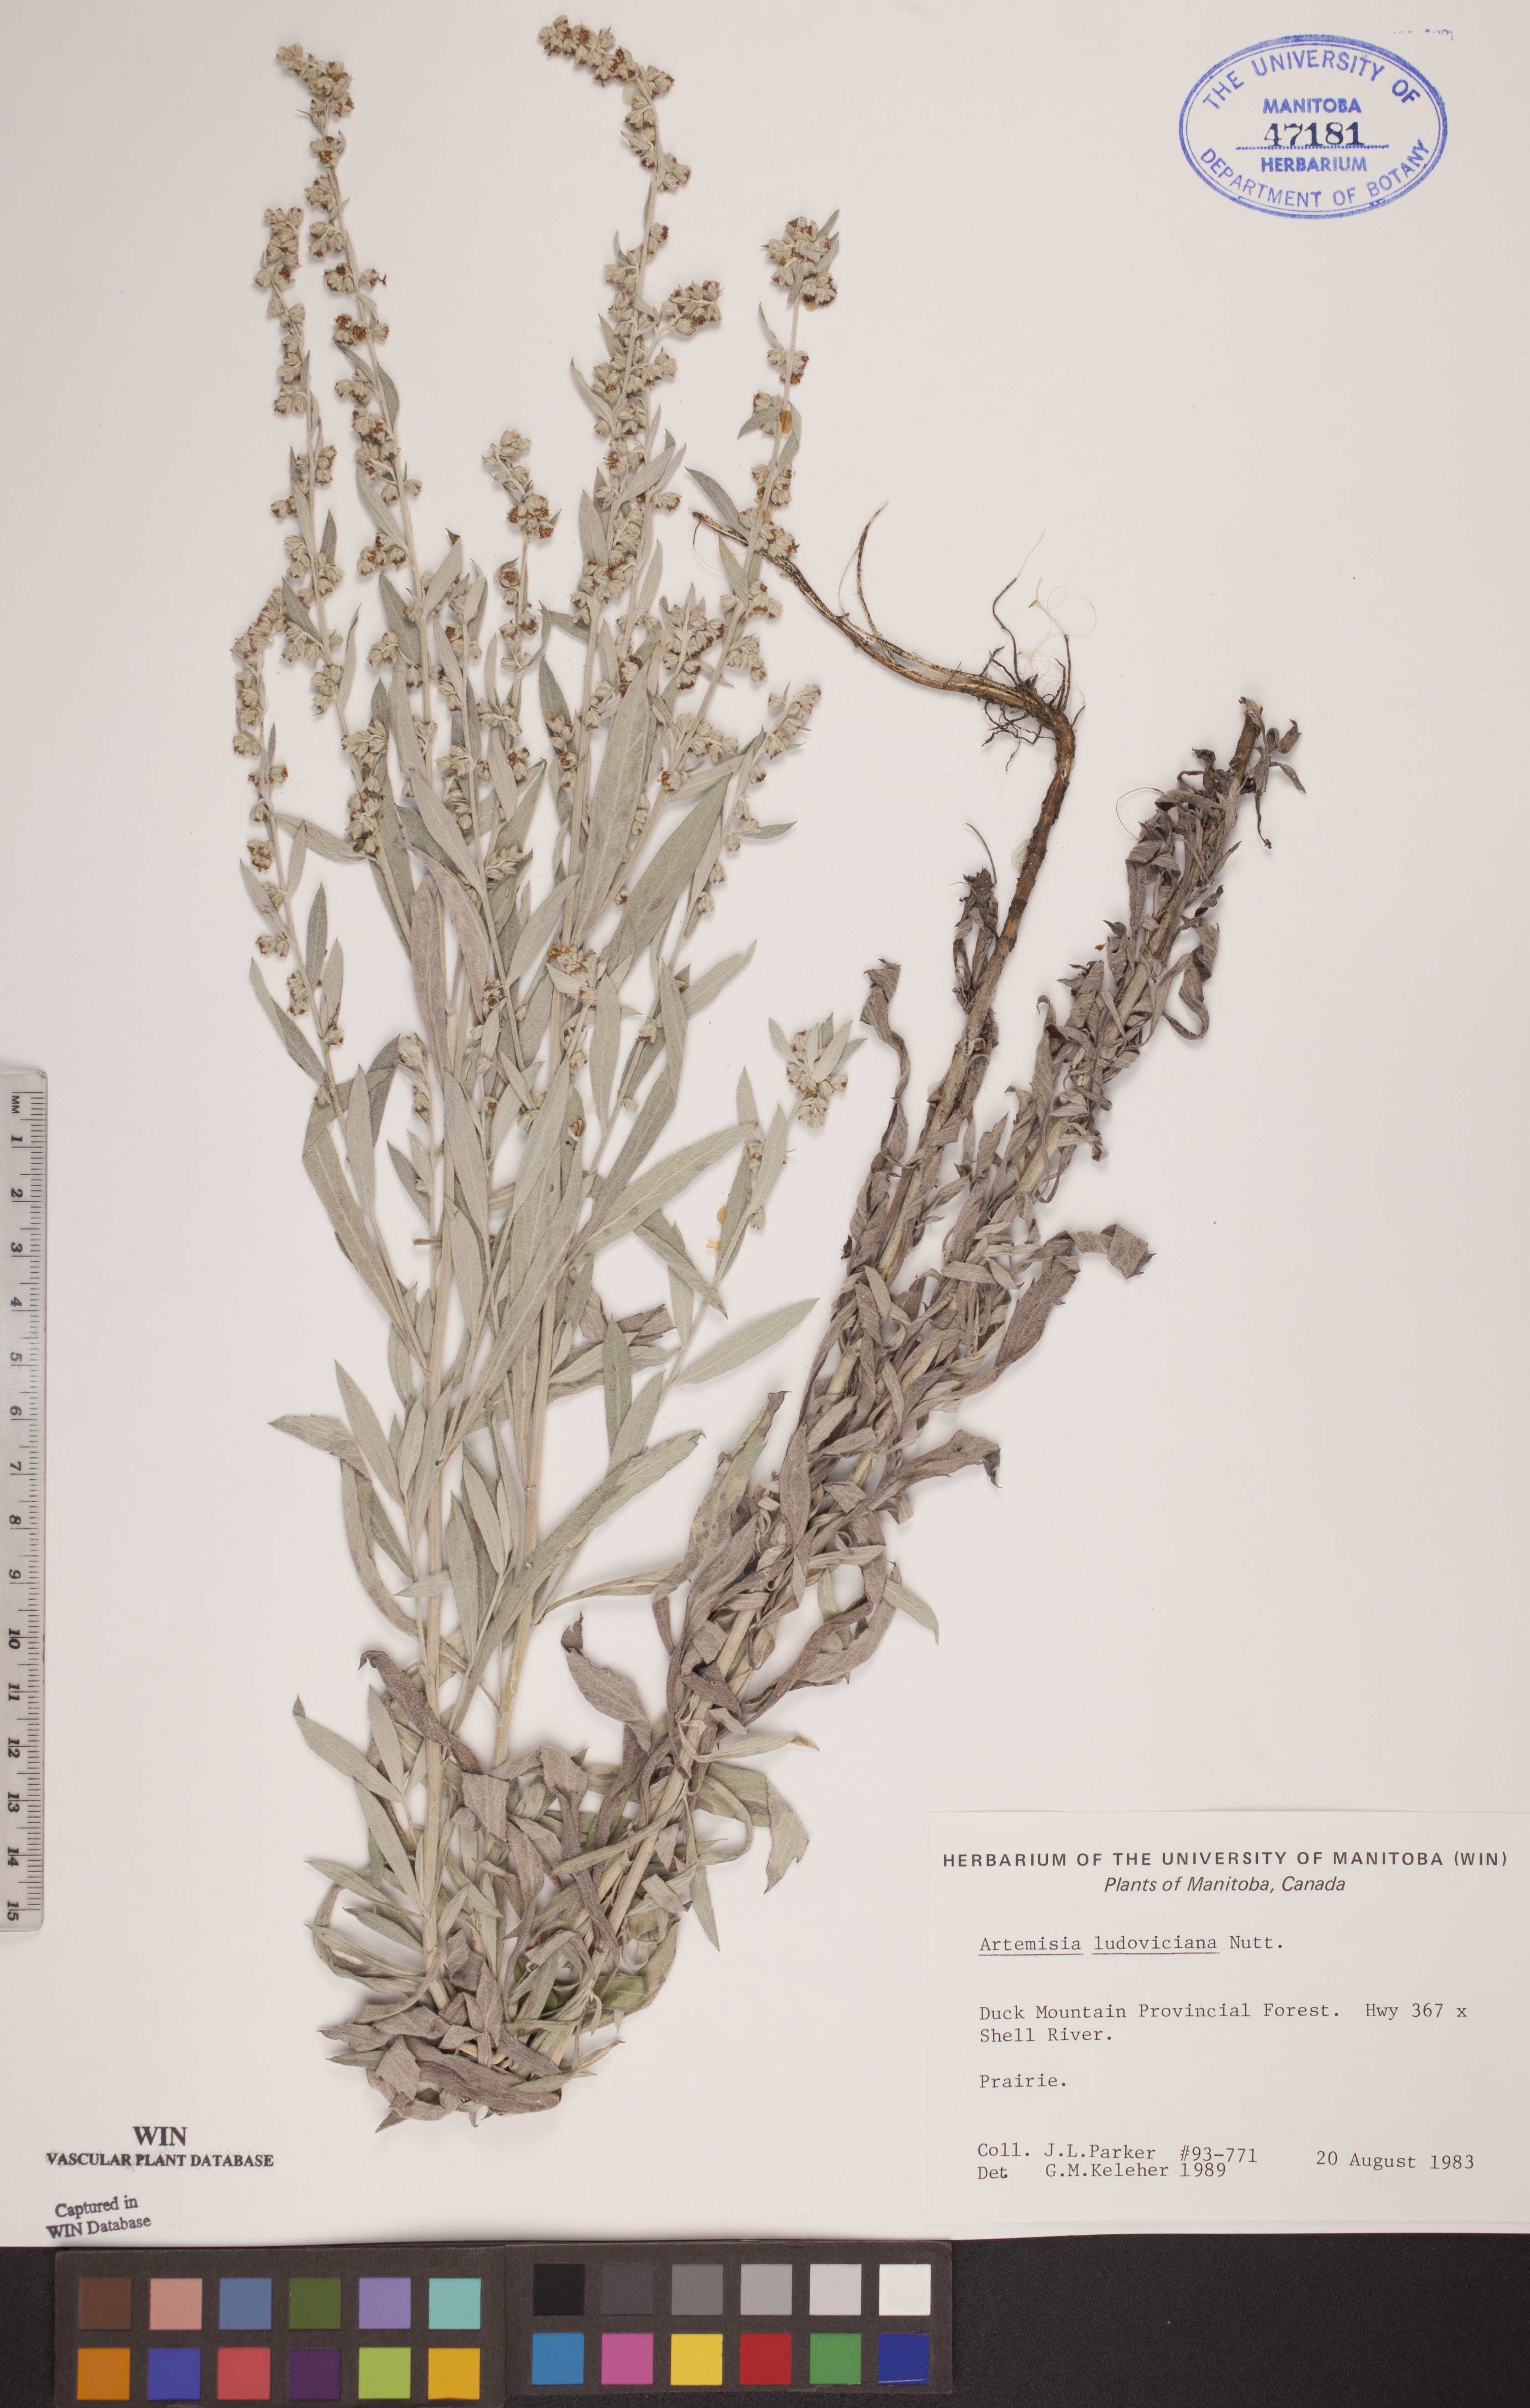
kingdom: Plantae
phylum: Tracheophyta
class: Magnoliopsida
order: Asterales
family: Asteraceae
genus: Artemisia
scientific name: Artemisia ludoviciana
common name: Western mugwort
